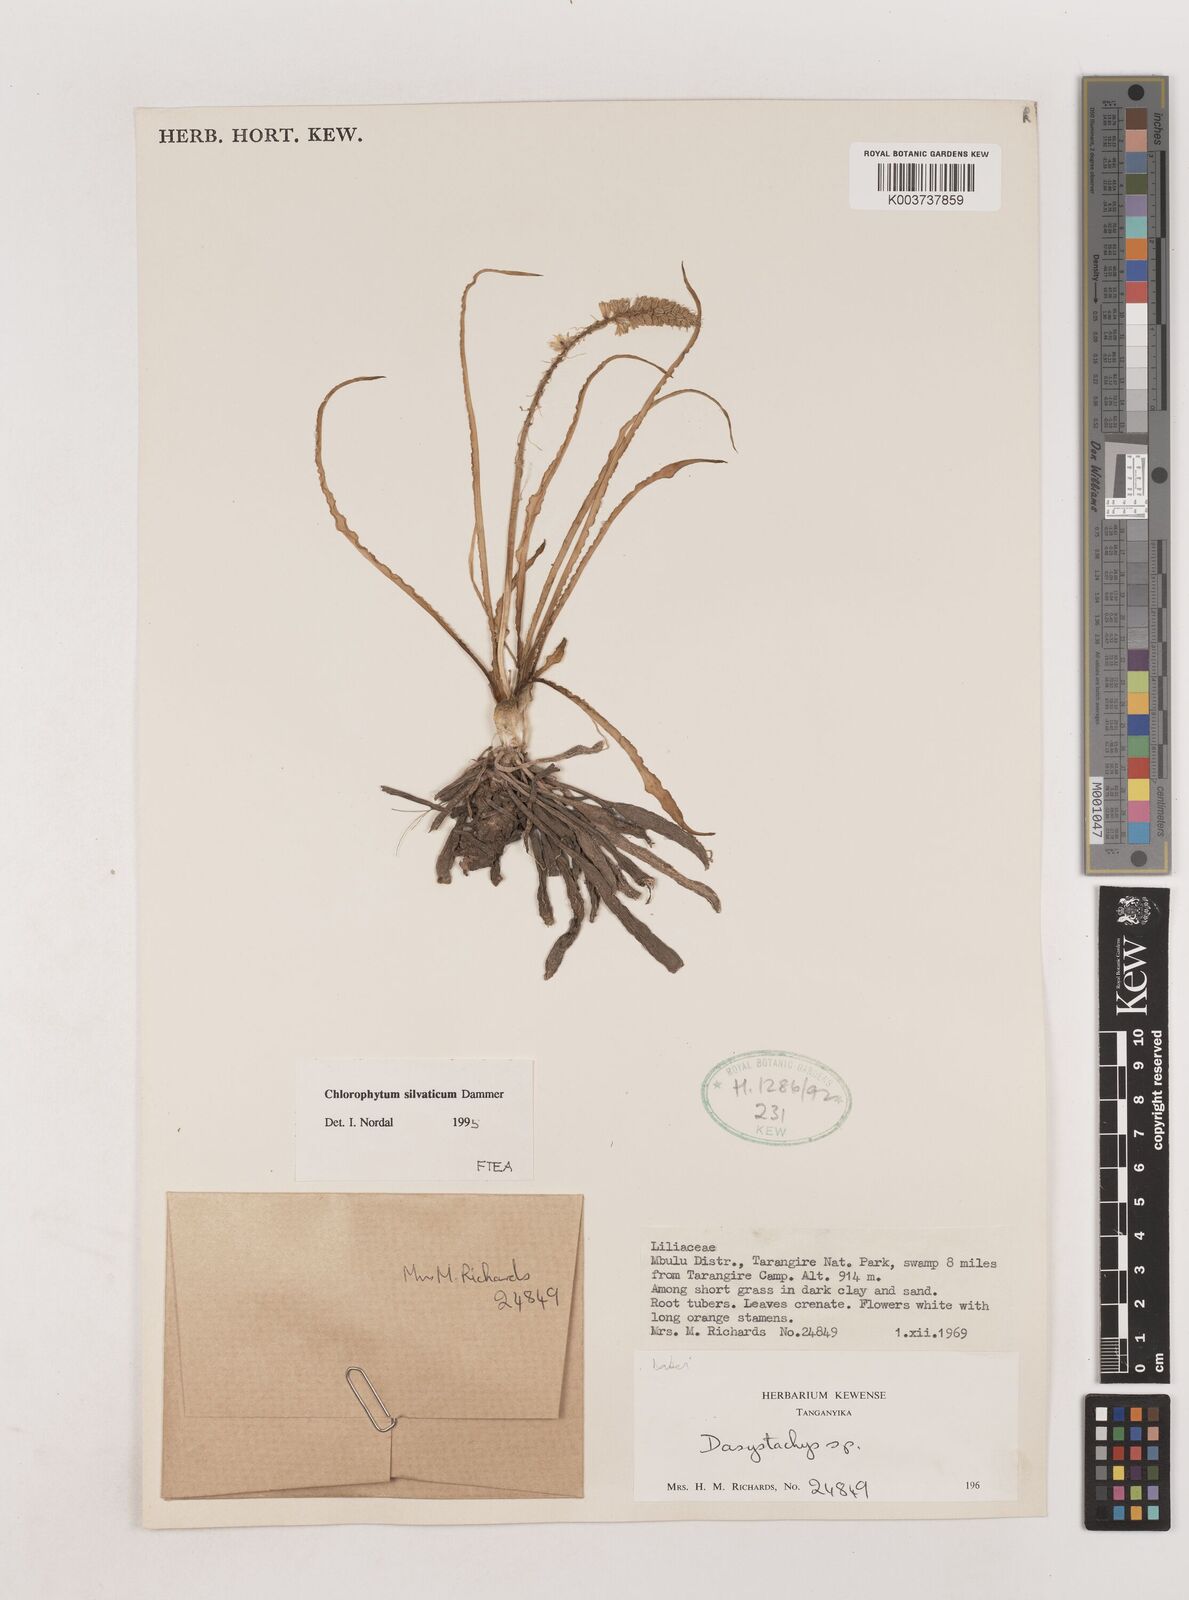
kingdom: Plantae
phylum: Tracheophyta
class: Liliopsida
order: Asparagales
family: Asparagaceae
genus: Chlorophytum
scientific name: Chlorophytum africanum
